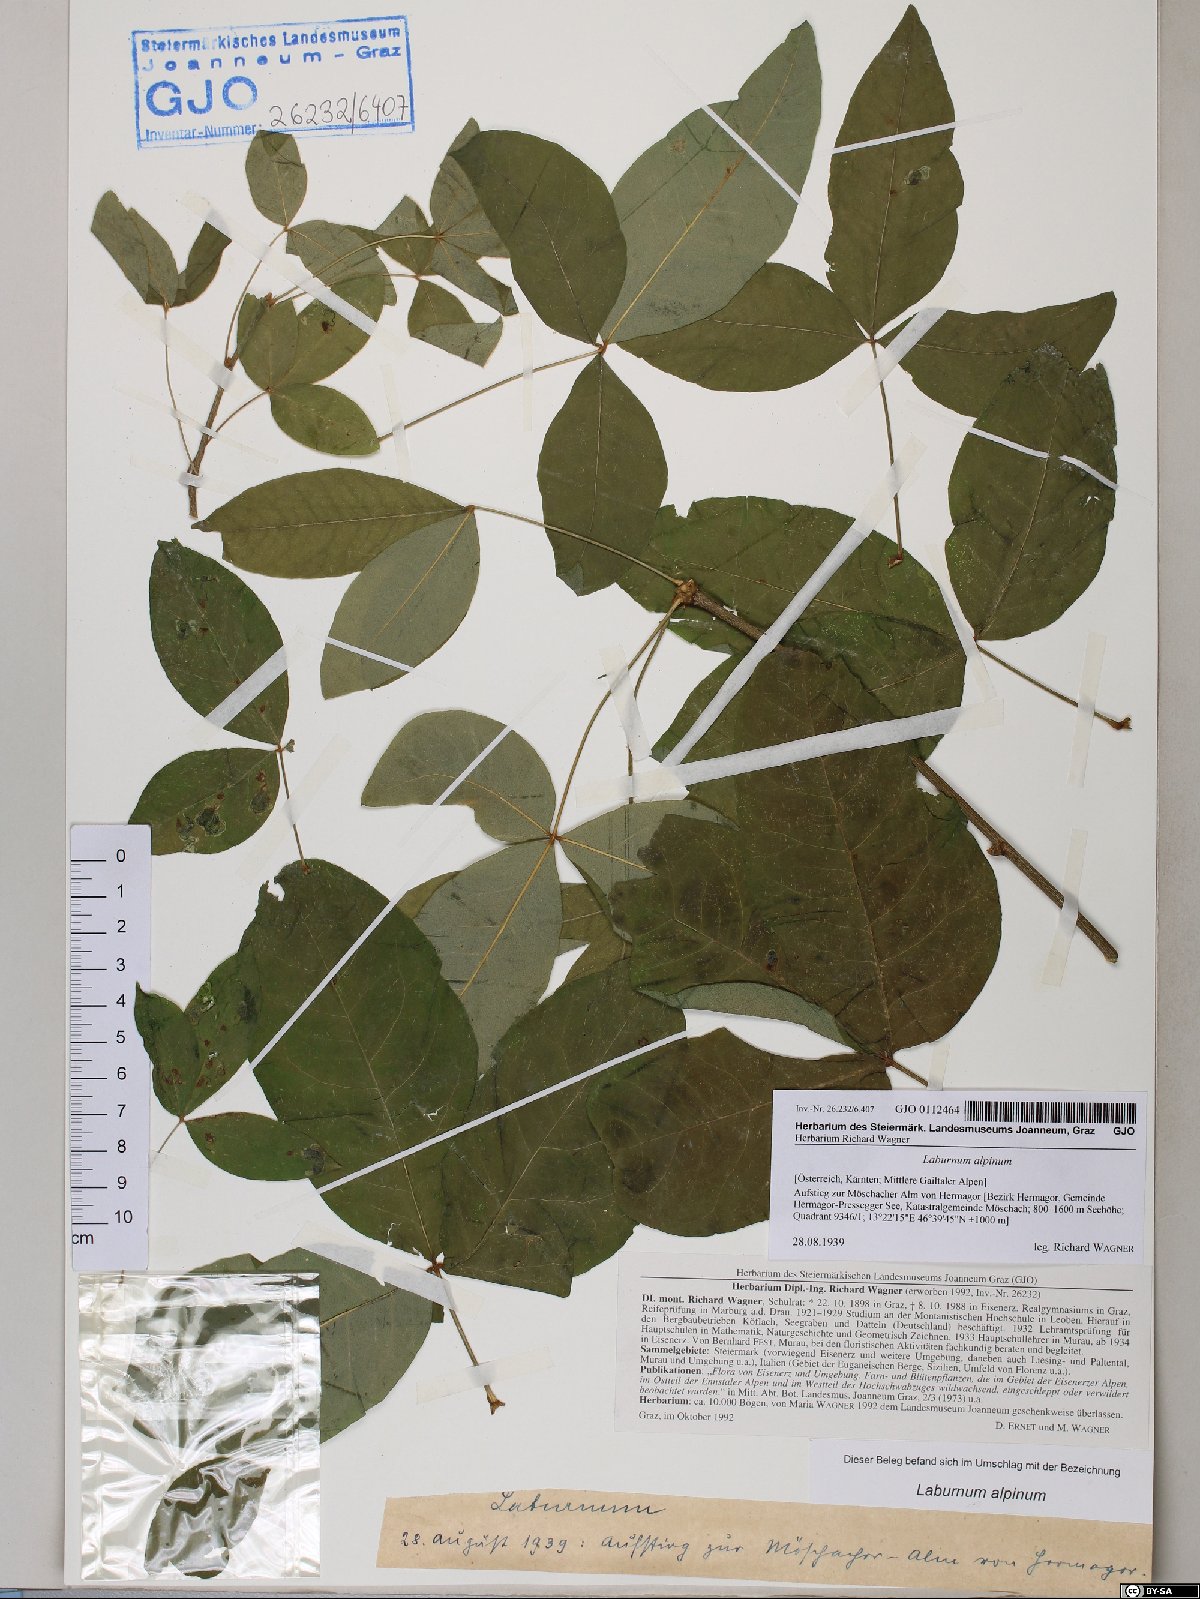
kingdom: Plantae
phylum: Tracheophyta
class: Magnoliopsida
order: Fabales
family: Fabaceae
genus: Laburnum
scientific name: Laburnum alpinum
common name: Scottish laburnum
